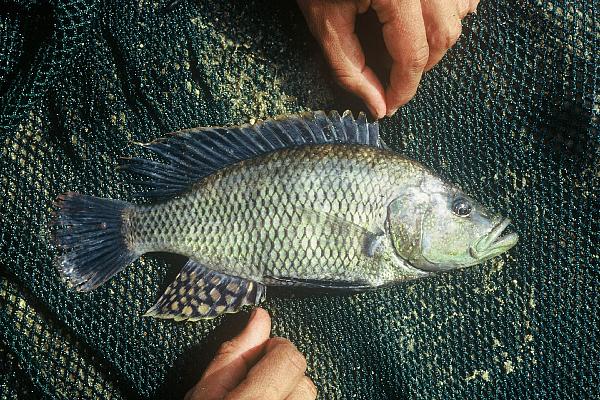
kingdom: Animalia
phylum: Chordata
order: Perciformes
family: Cichlidae
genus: Serranochromis
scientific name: Serranochromis macrocephalus
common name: Purpleface largemouth
